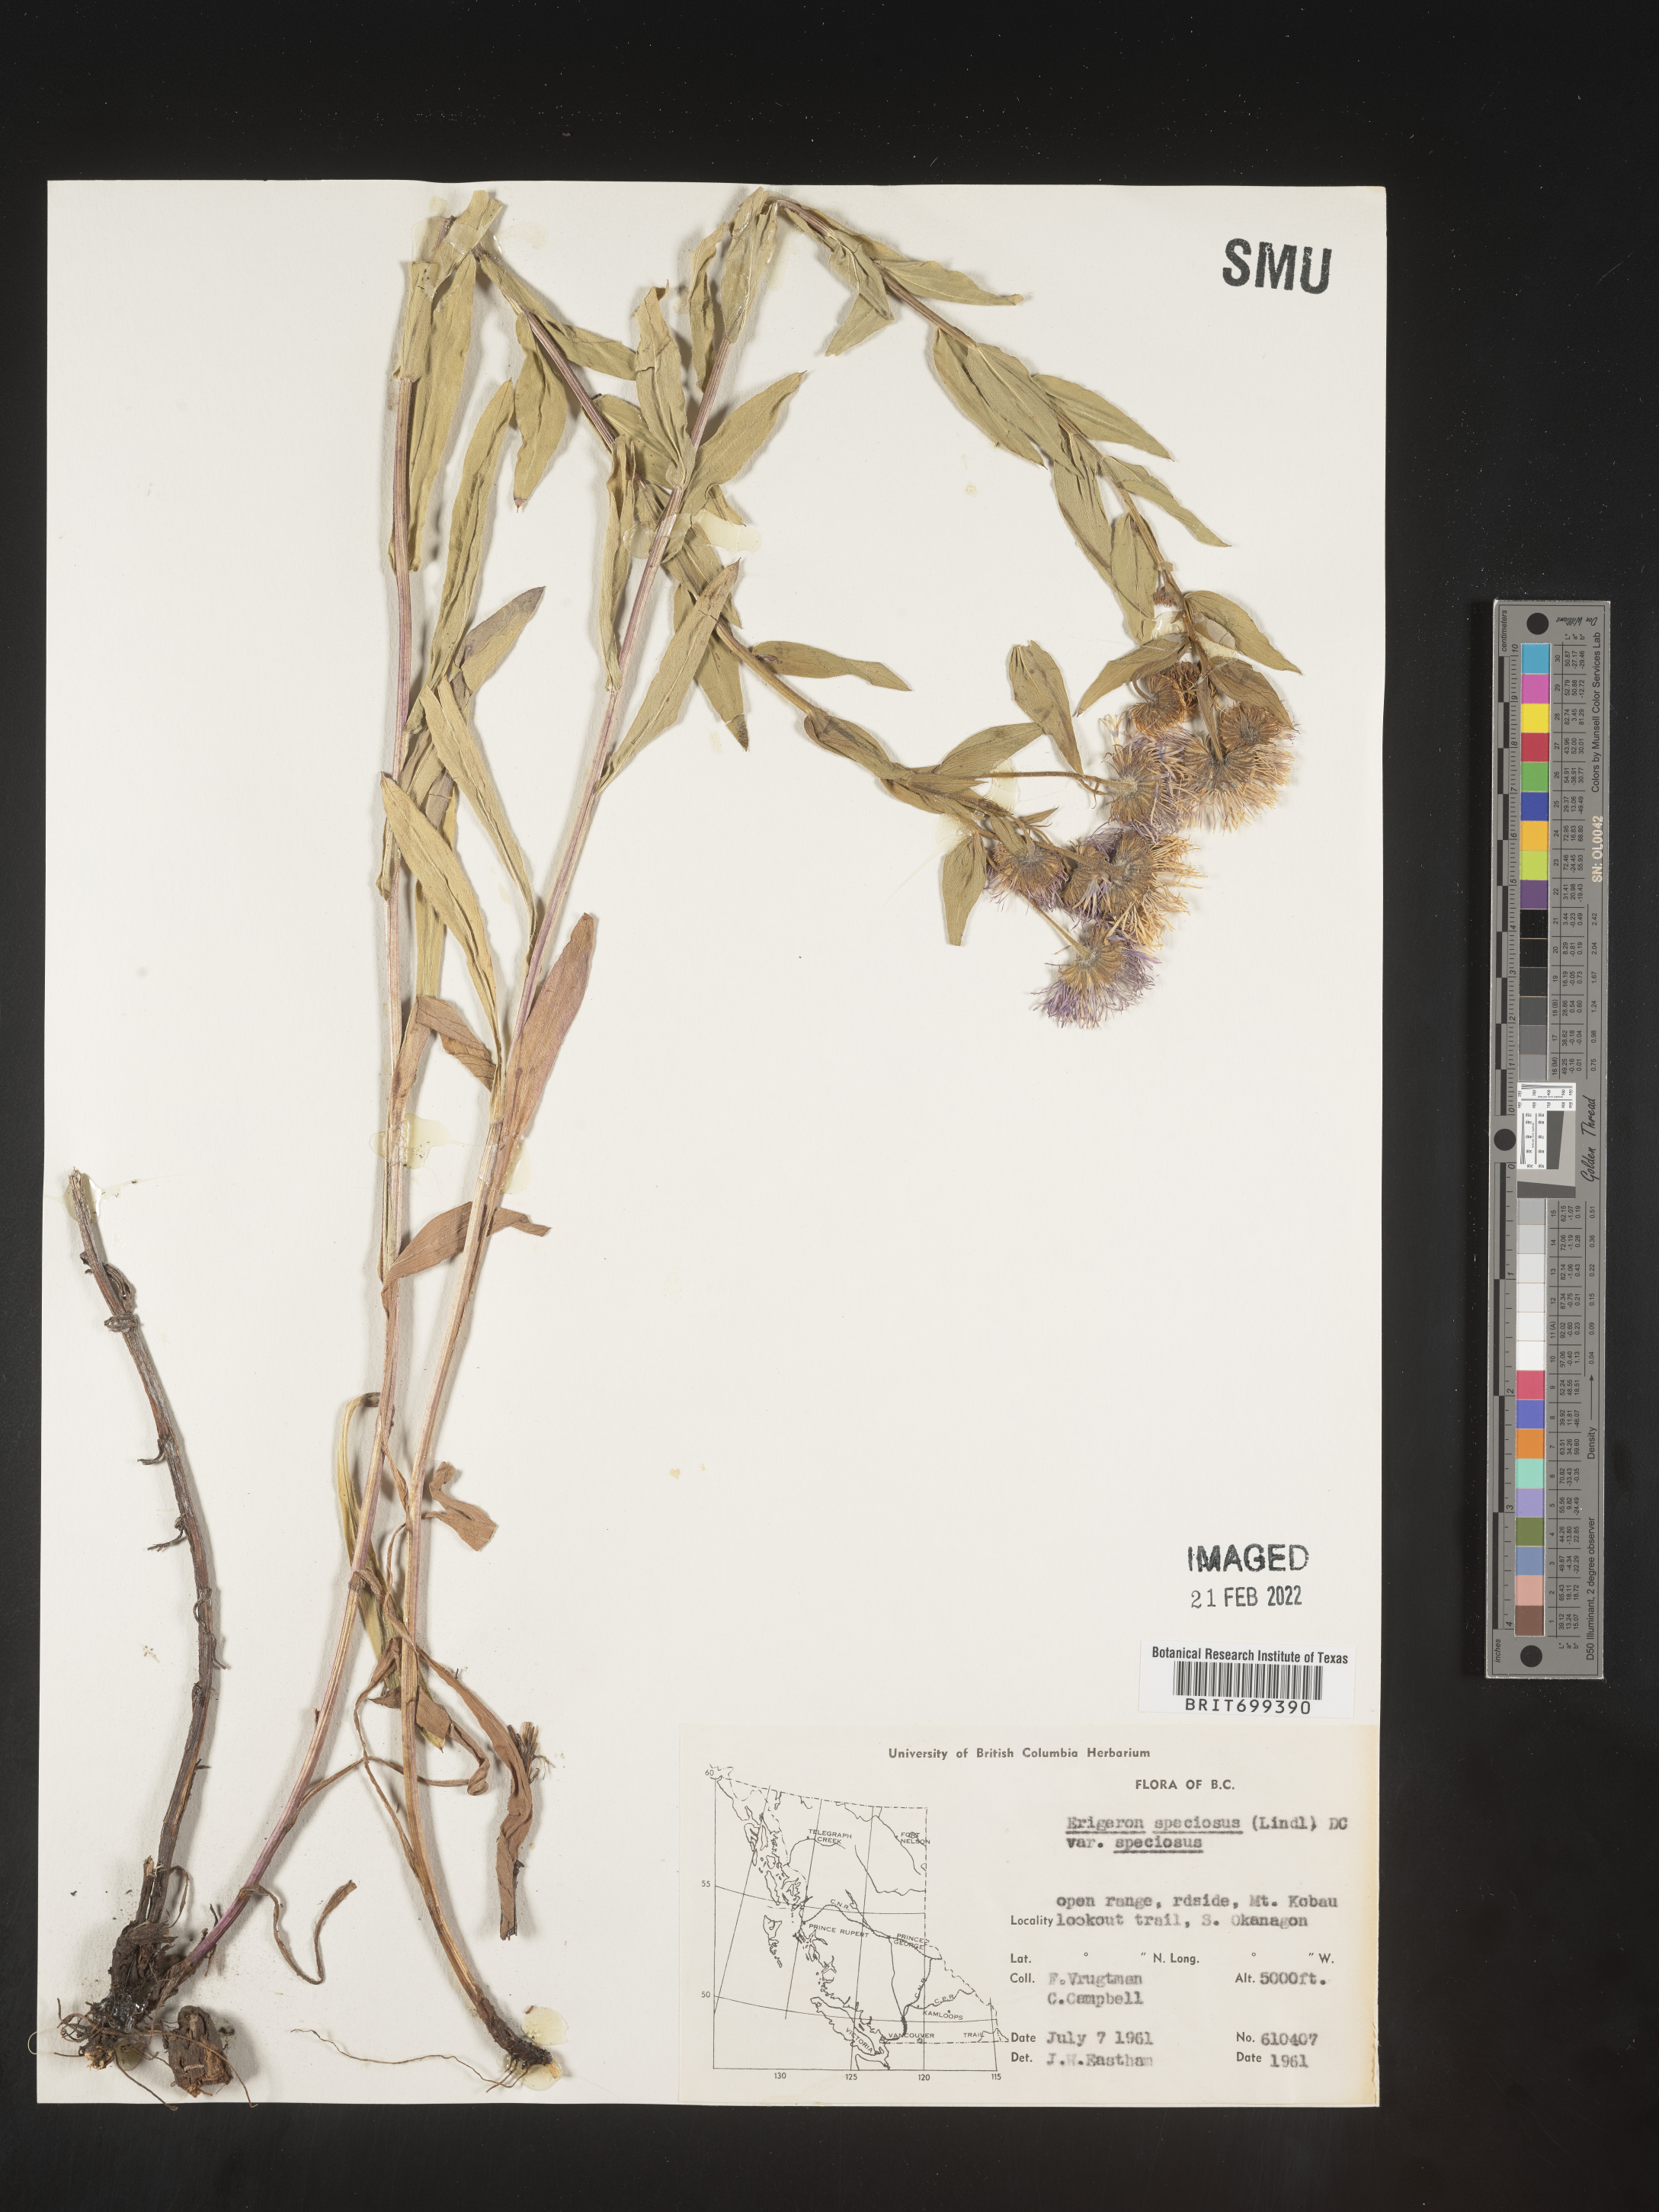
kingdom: Plantae
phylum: Tracheophyta
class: Magnoliopsida
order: Asterales
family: Asteraceae
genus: Erigeron
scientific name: Erigeron speciosus
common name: Aspen fleabane
